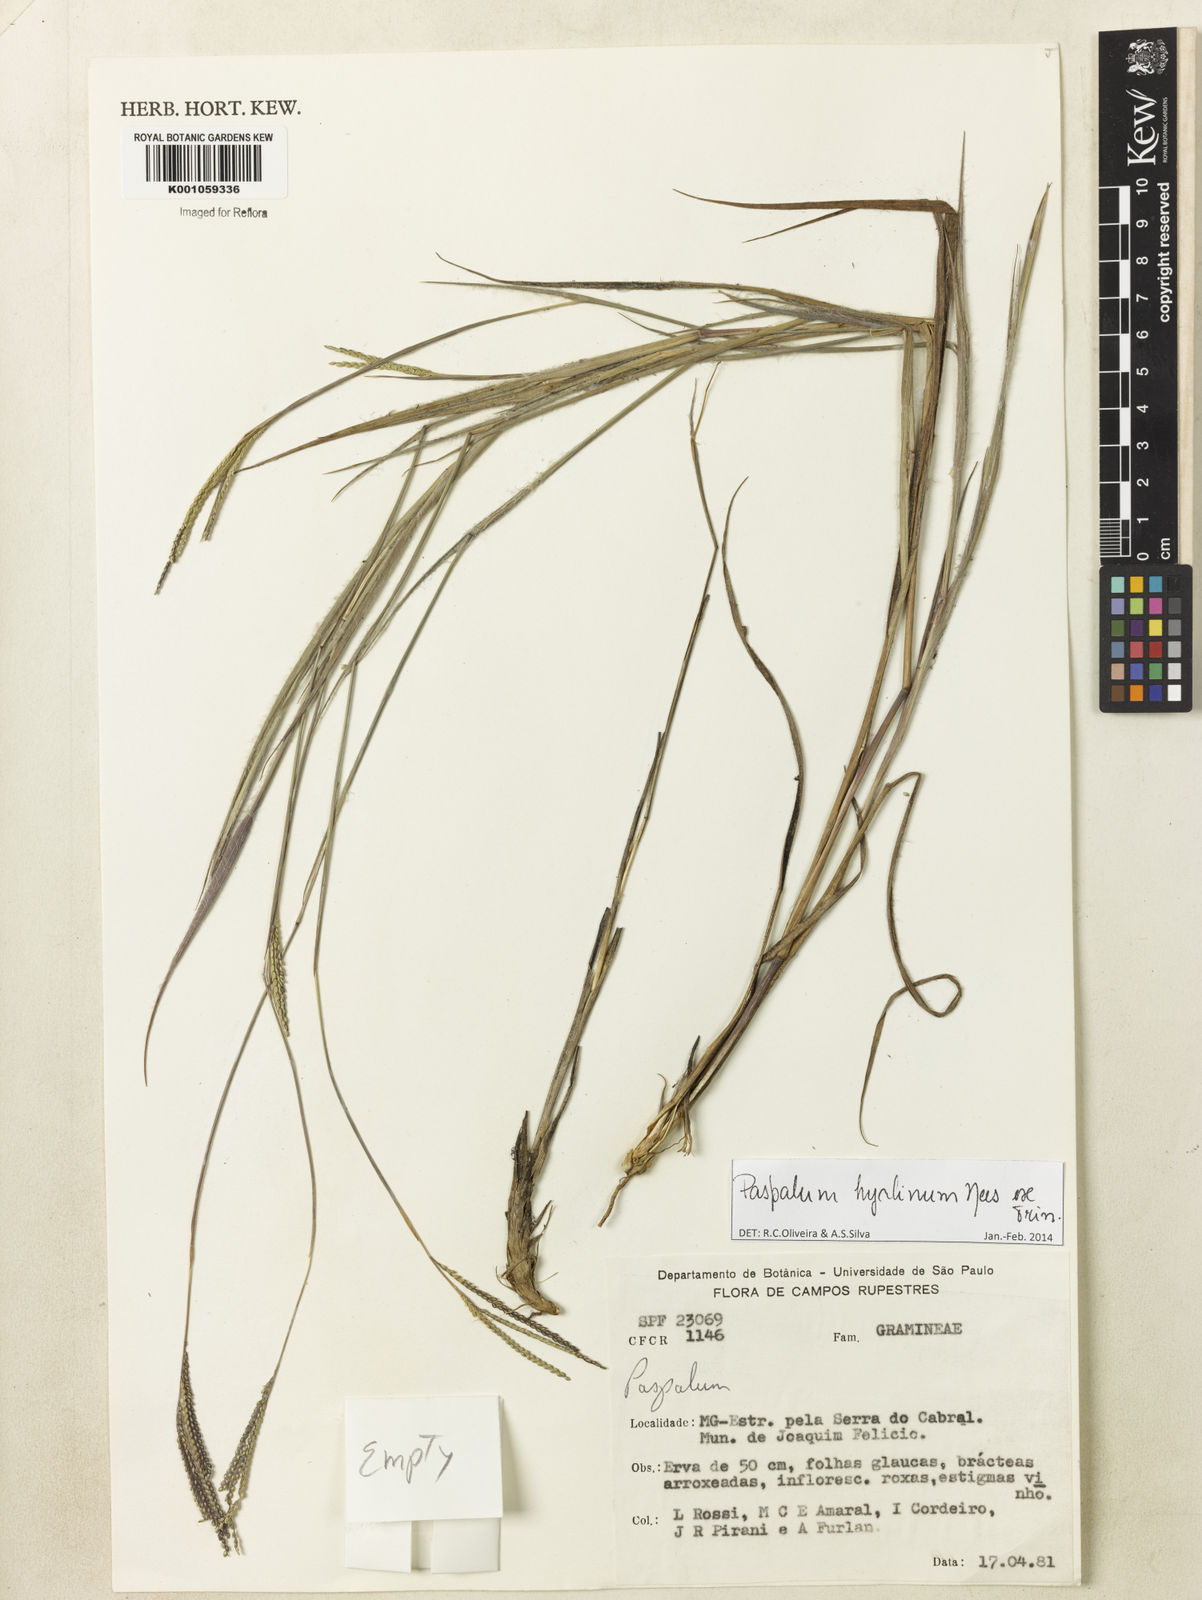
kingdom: Plantae
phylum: Tracheophyta
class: Liliopsida
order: Poales
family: Poaceae
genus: Paspalum
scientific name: Paspalum hyalinum
